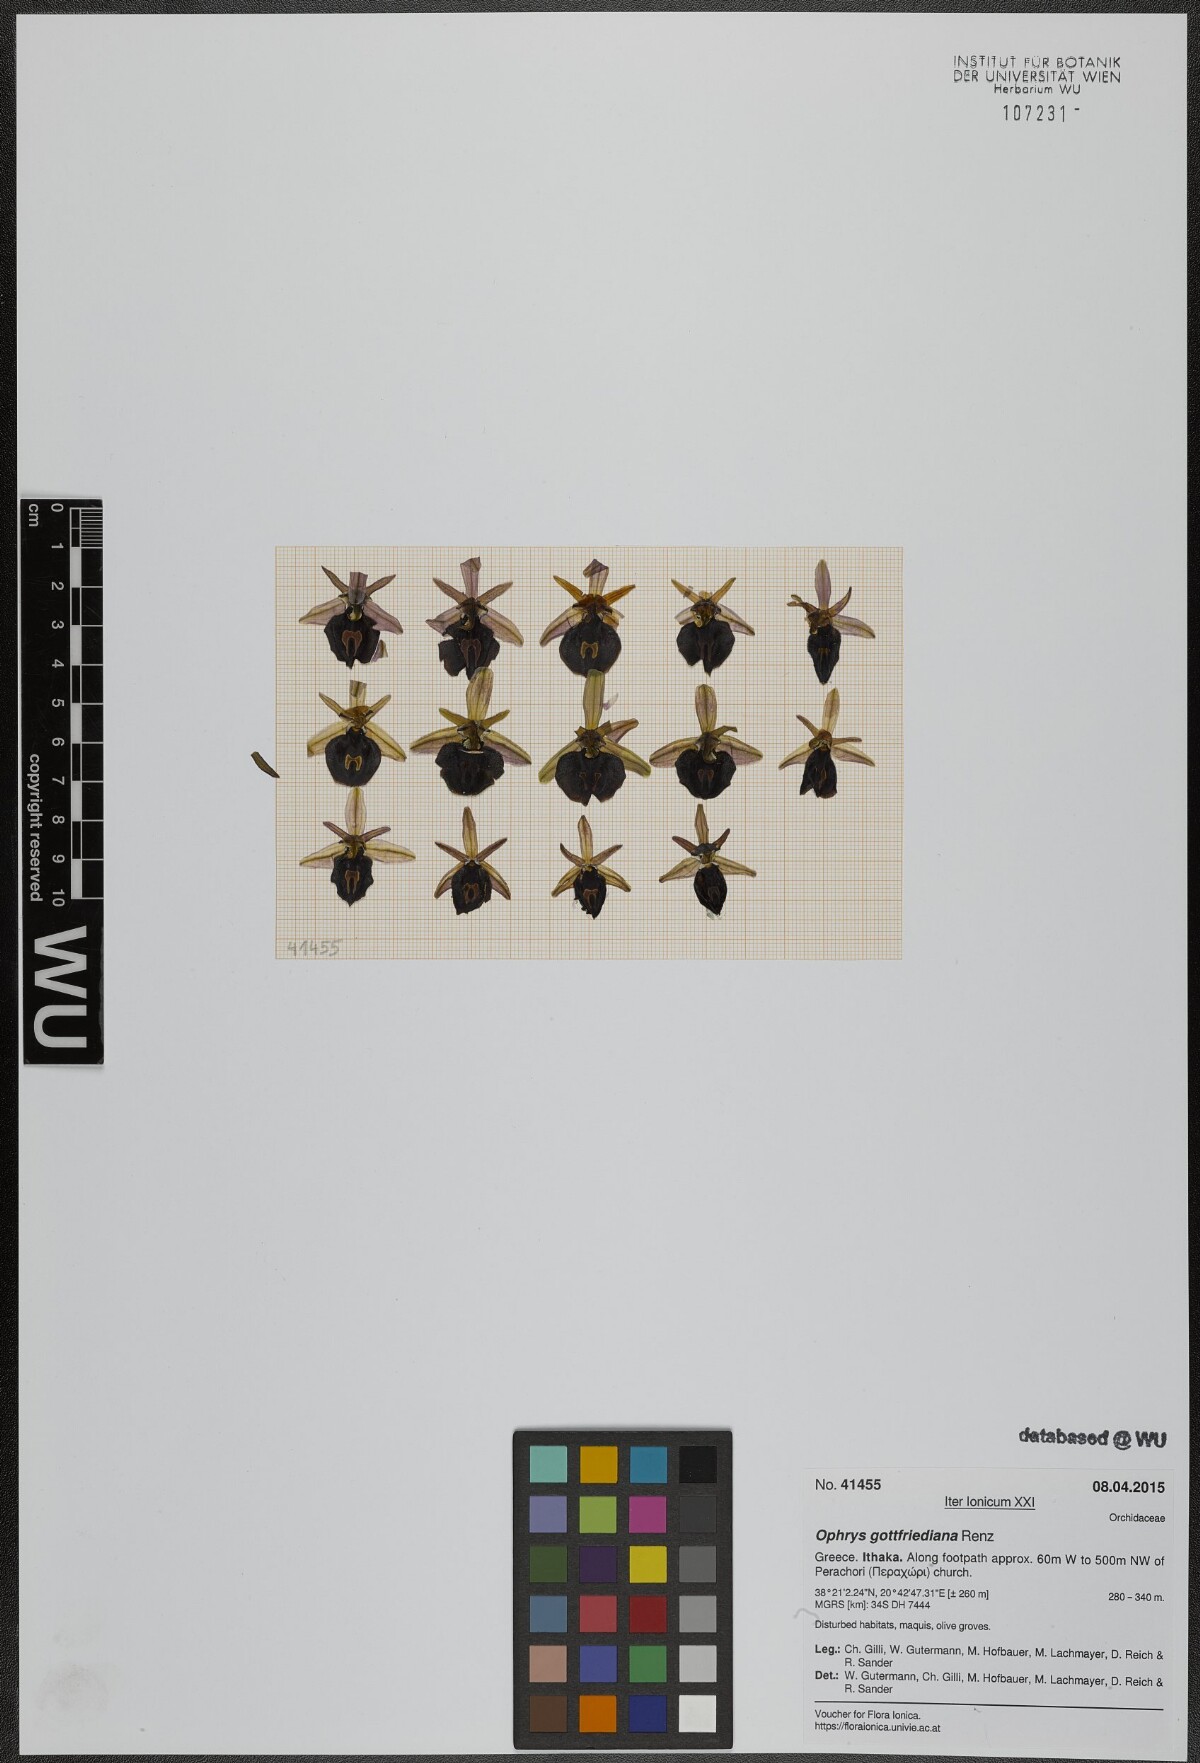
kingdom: Plantae
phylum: Tracheophyta
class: Liliopsida
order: Asparagales
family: Orchidaceae
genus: Ophrys
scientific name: Ophrys ferrum-equinum
